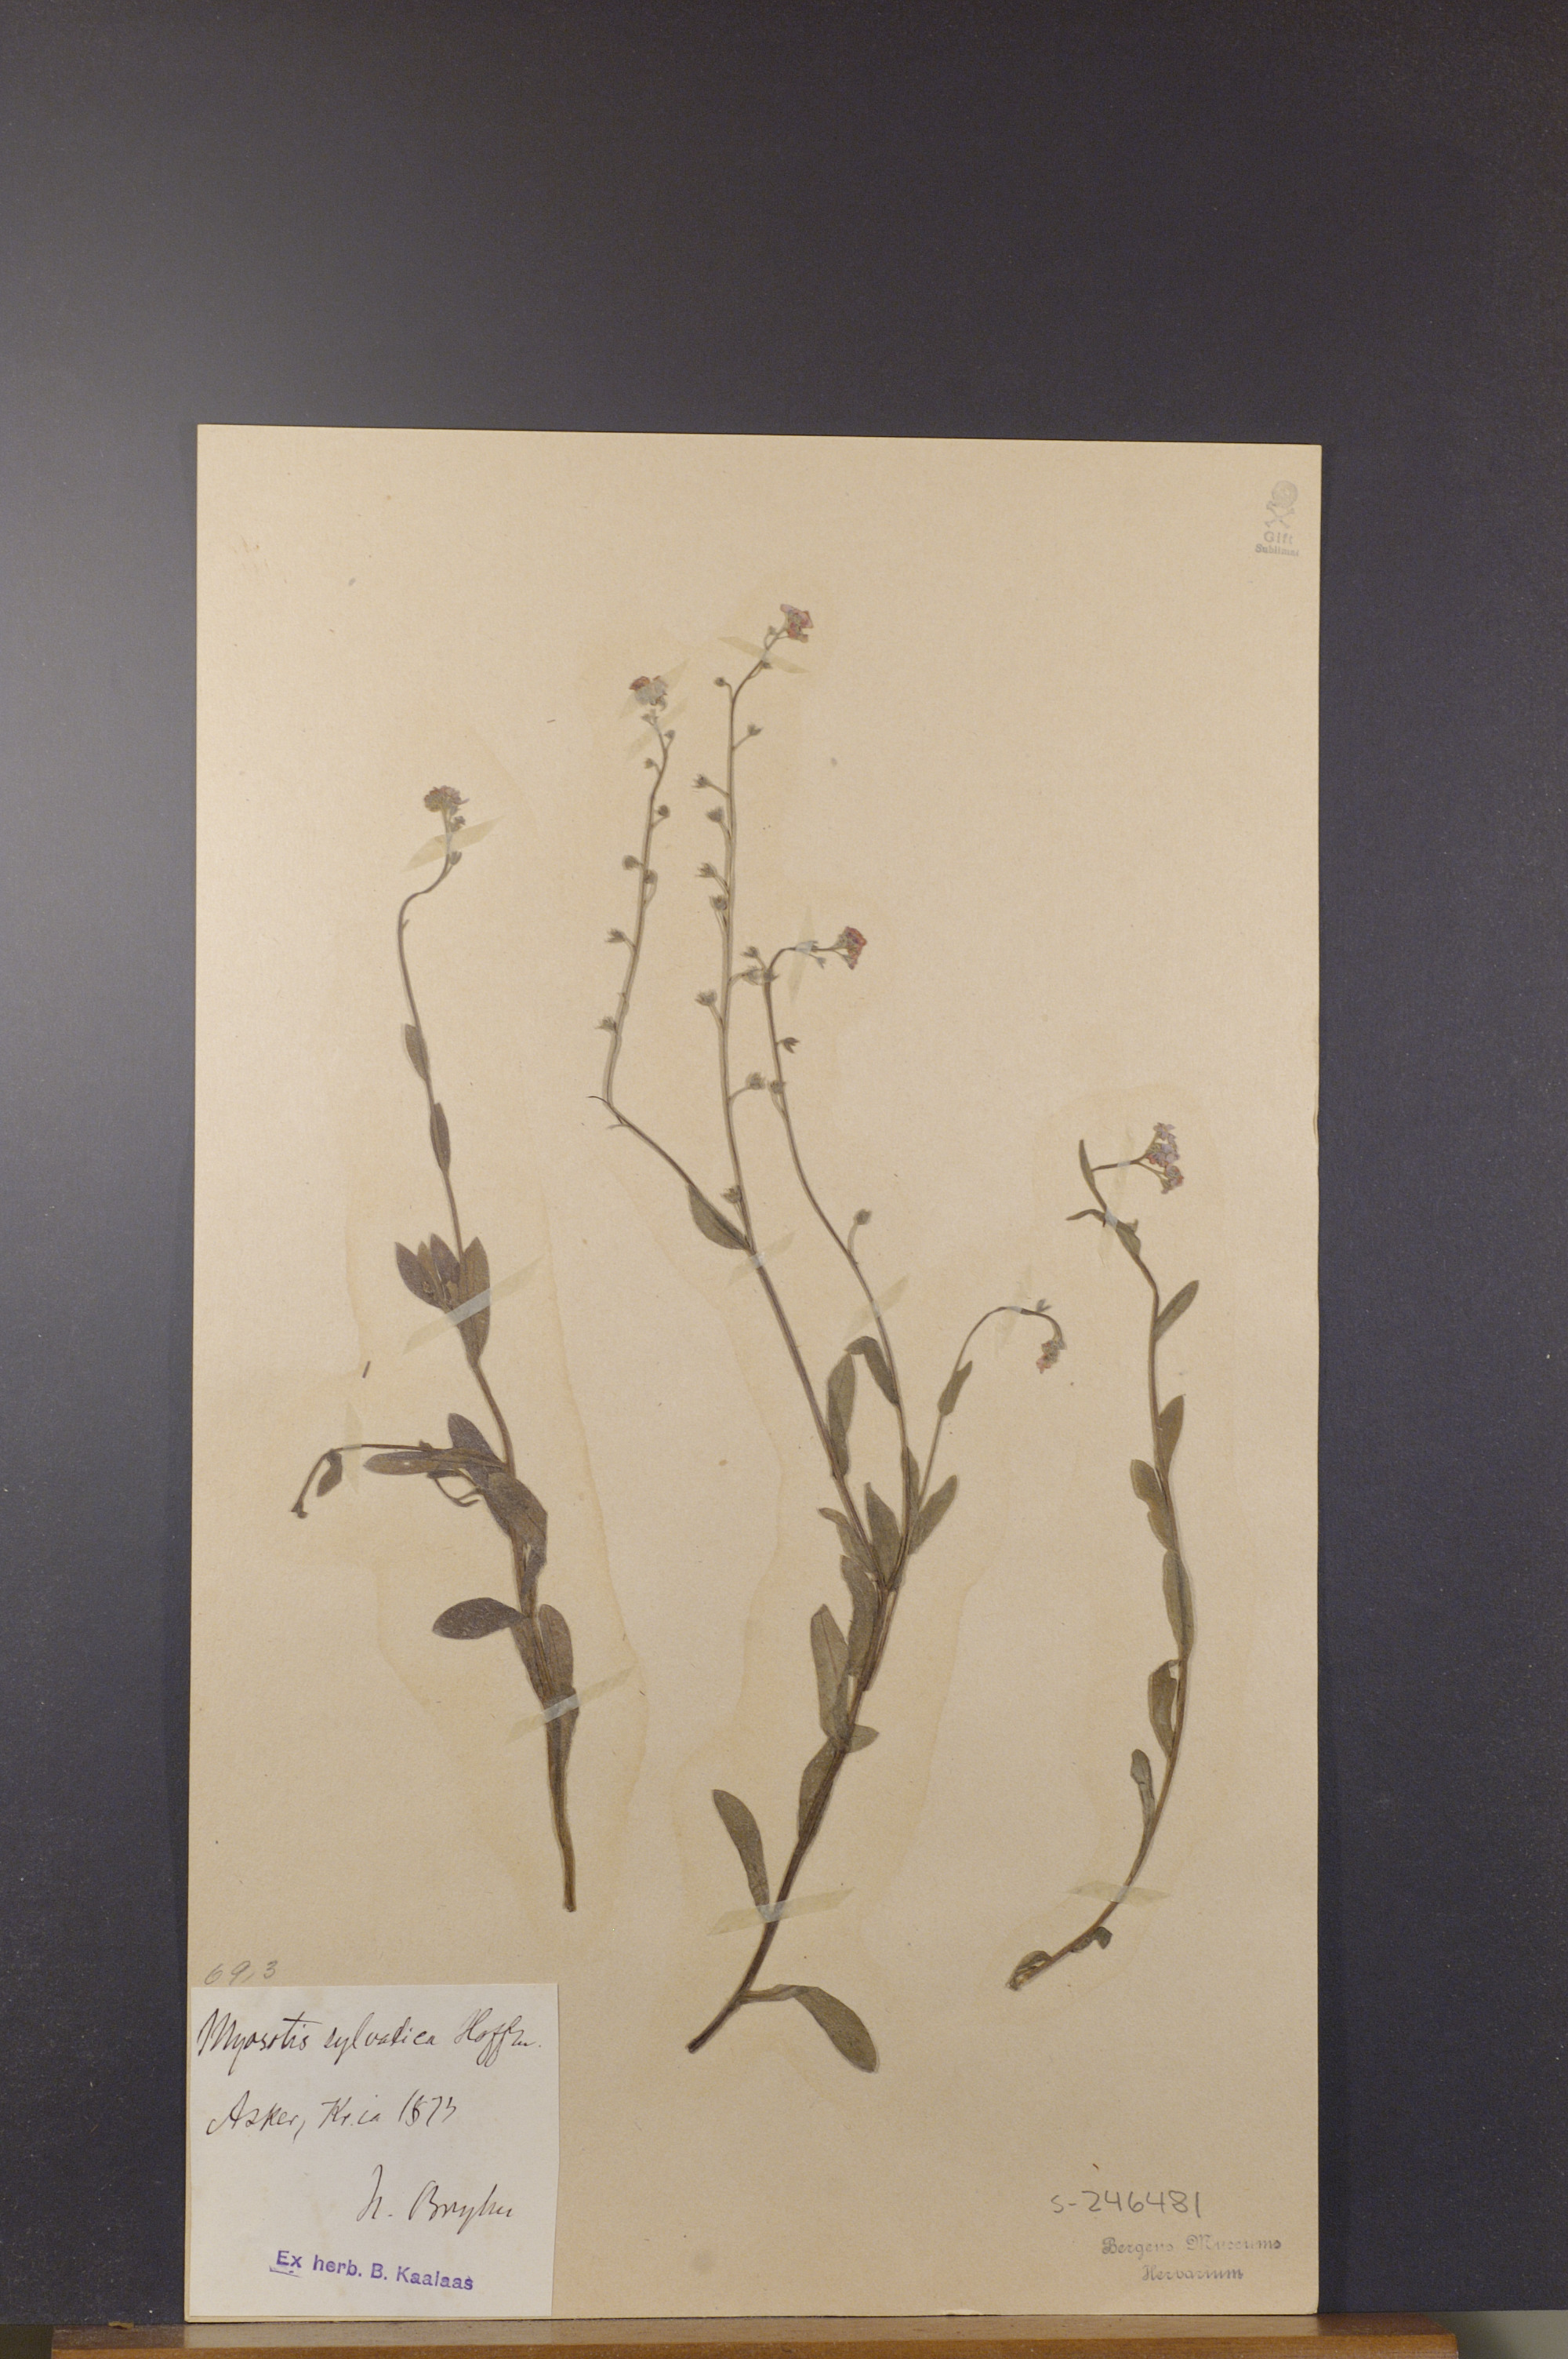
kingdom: Plantae
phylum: Tracheophyta
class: Magnoliopsida
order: Boraginales
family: Boraginaceae
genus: Myosotis
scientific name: Myosotis sylvatica
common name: Wood forget-me-not
